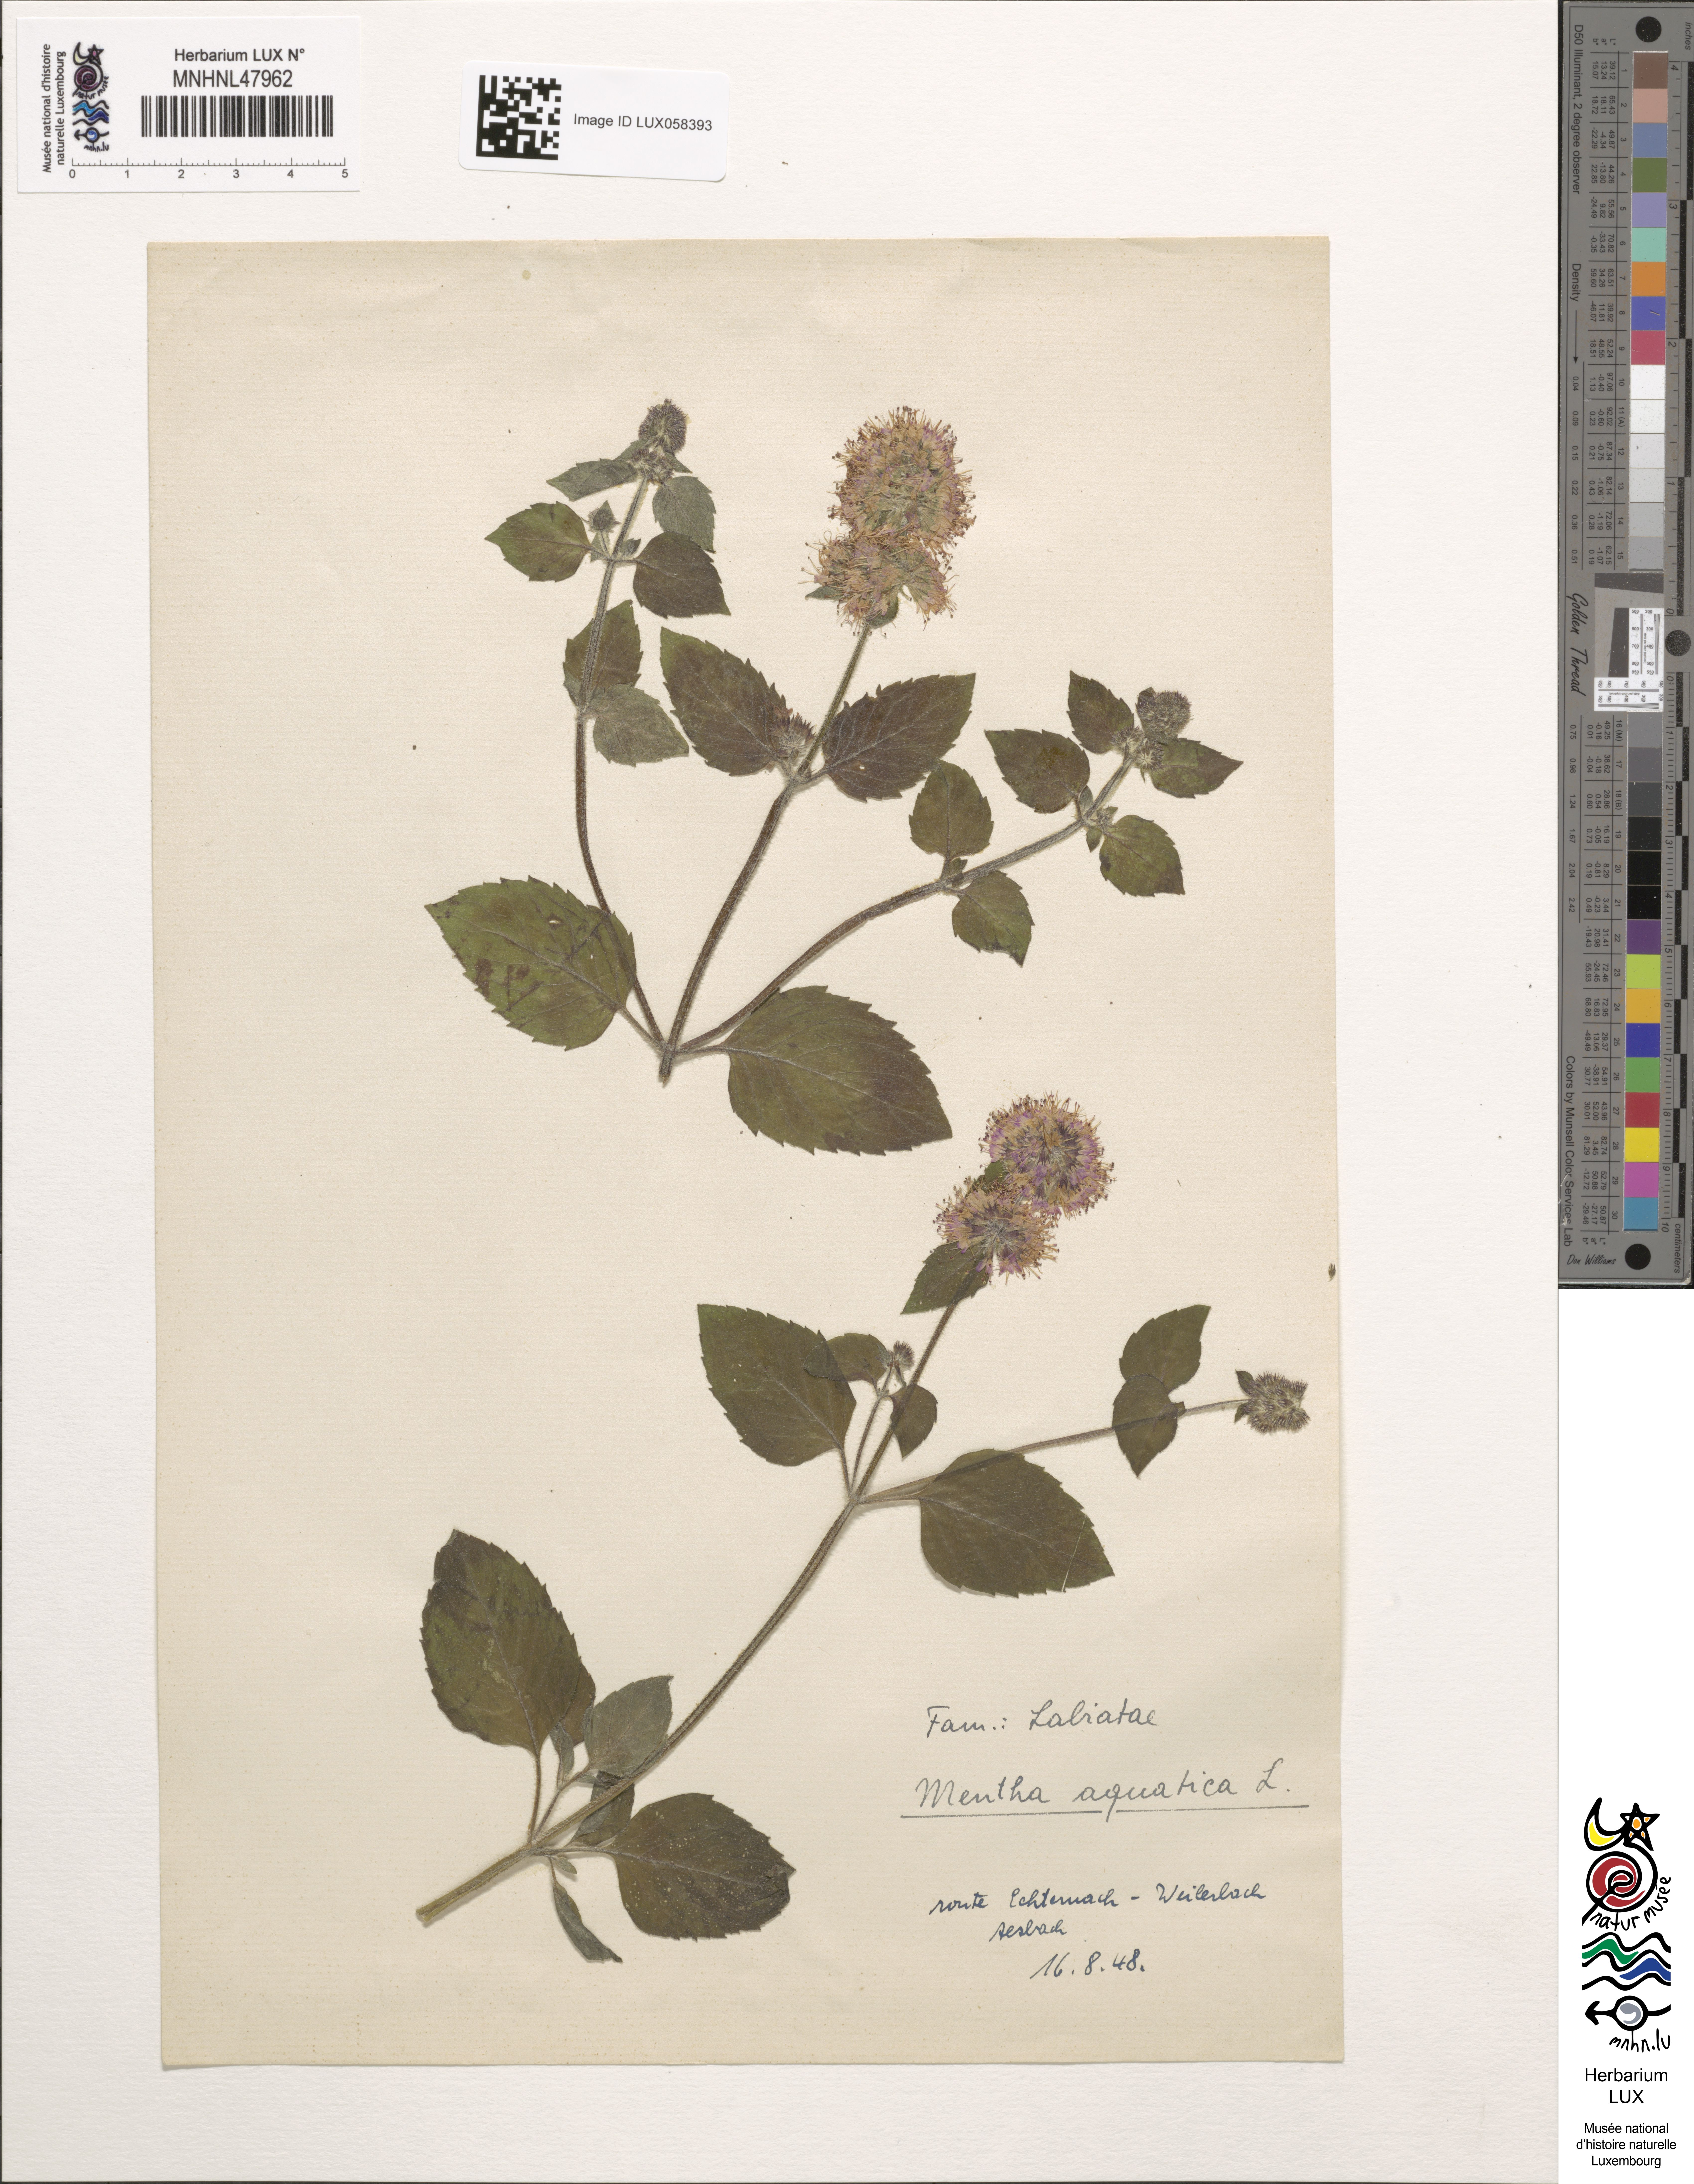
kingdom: Plantae
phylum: Tracheophyta
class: Magnoliopsida
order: Lamiales
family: Lamiaceae
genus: Mentha
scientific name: Mentha aquatica
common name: Water mint
